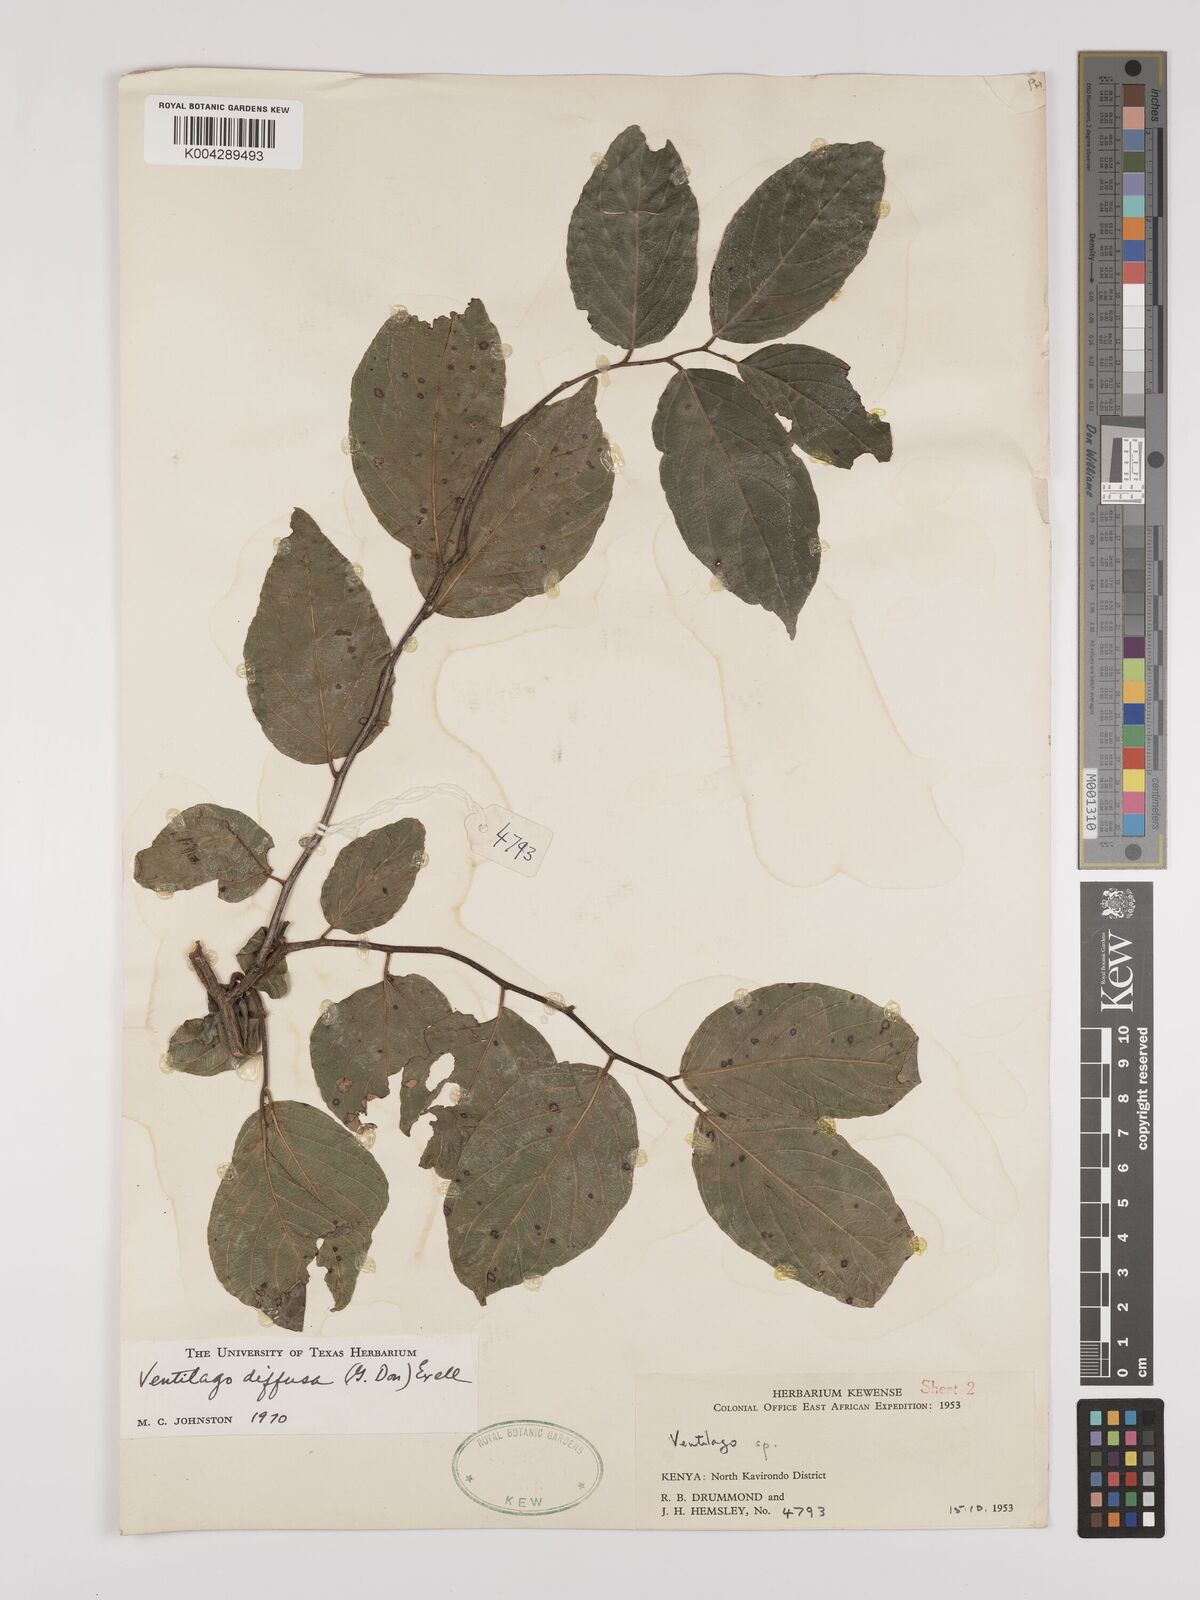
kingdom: Plantae
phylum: Tracheophyta
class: Magnoliopsida
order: Rosales
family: Rhamnaceae
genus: Ventilago
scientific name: Ventilago diffusa
